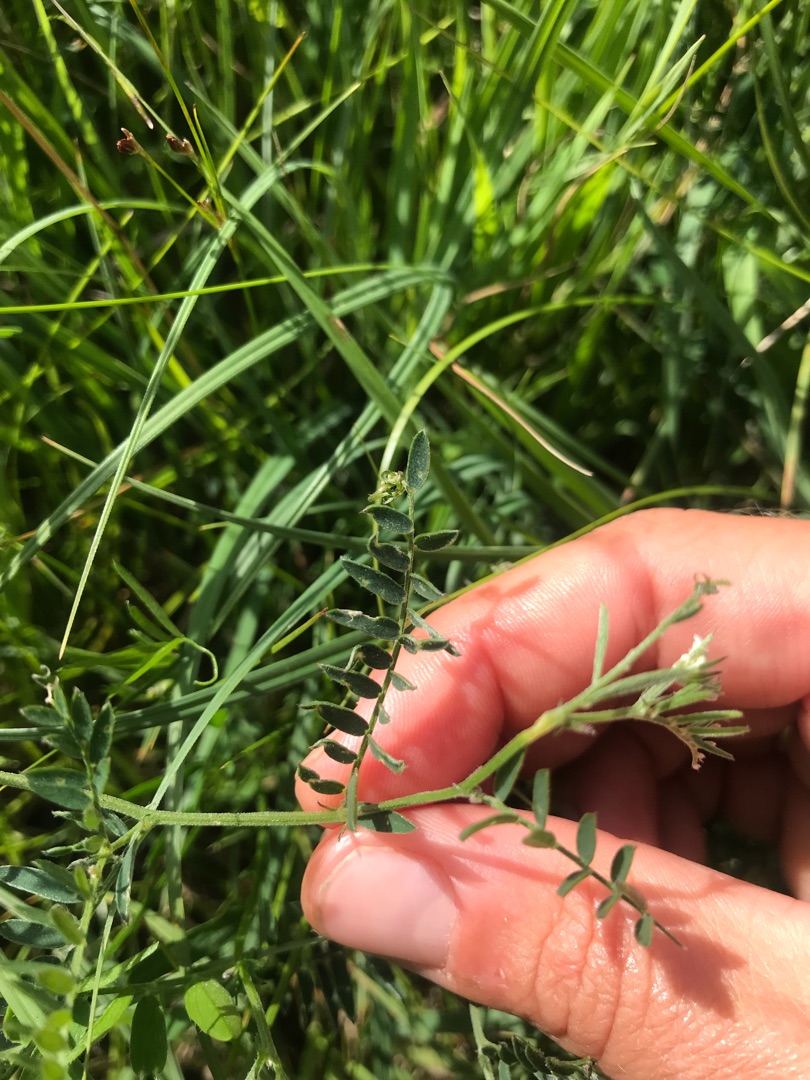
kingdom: Plantae
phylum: Tracheophyta
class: Magnoliopsida
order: Fabales
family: Fabaceae
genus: Vicia
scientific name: Vicia cracca
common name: Muse-vikke
